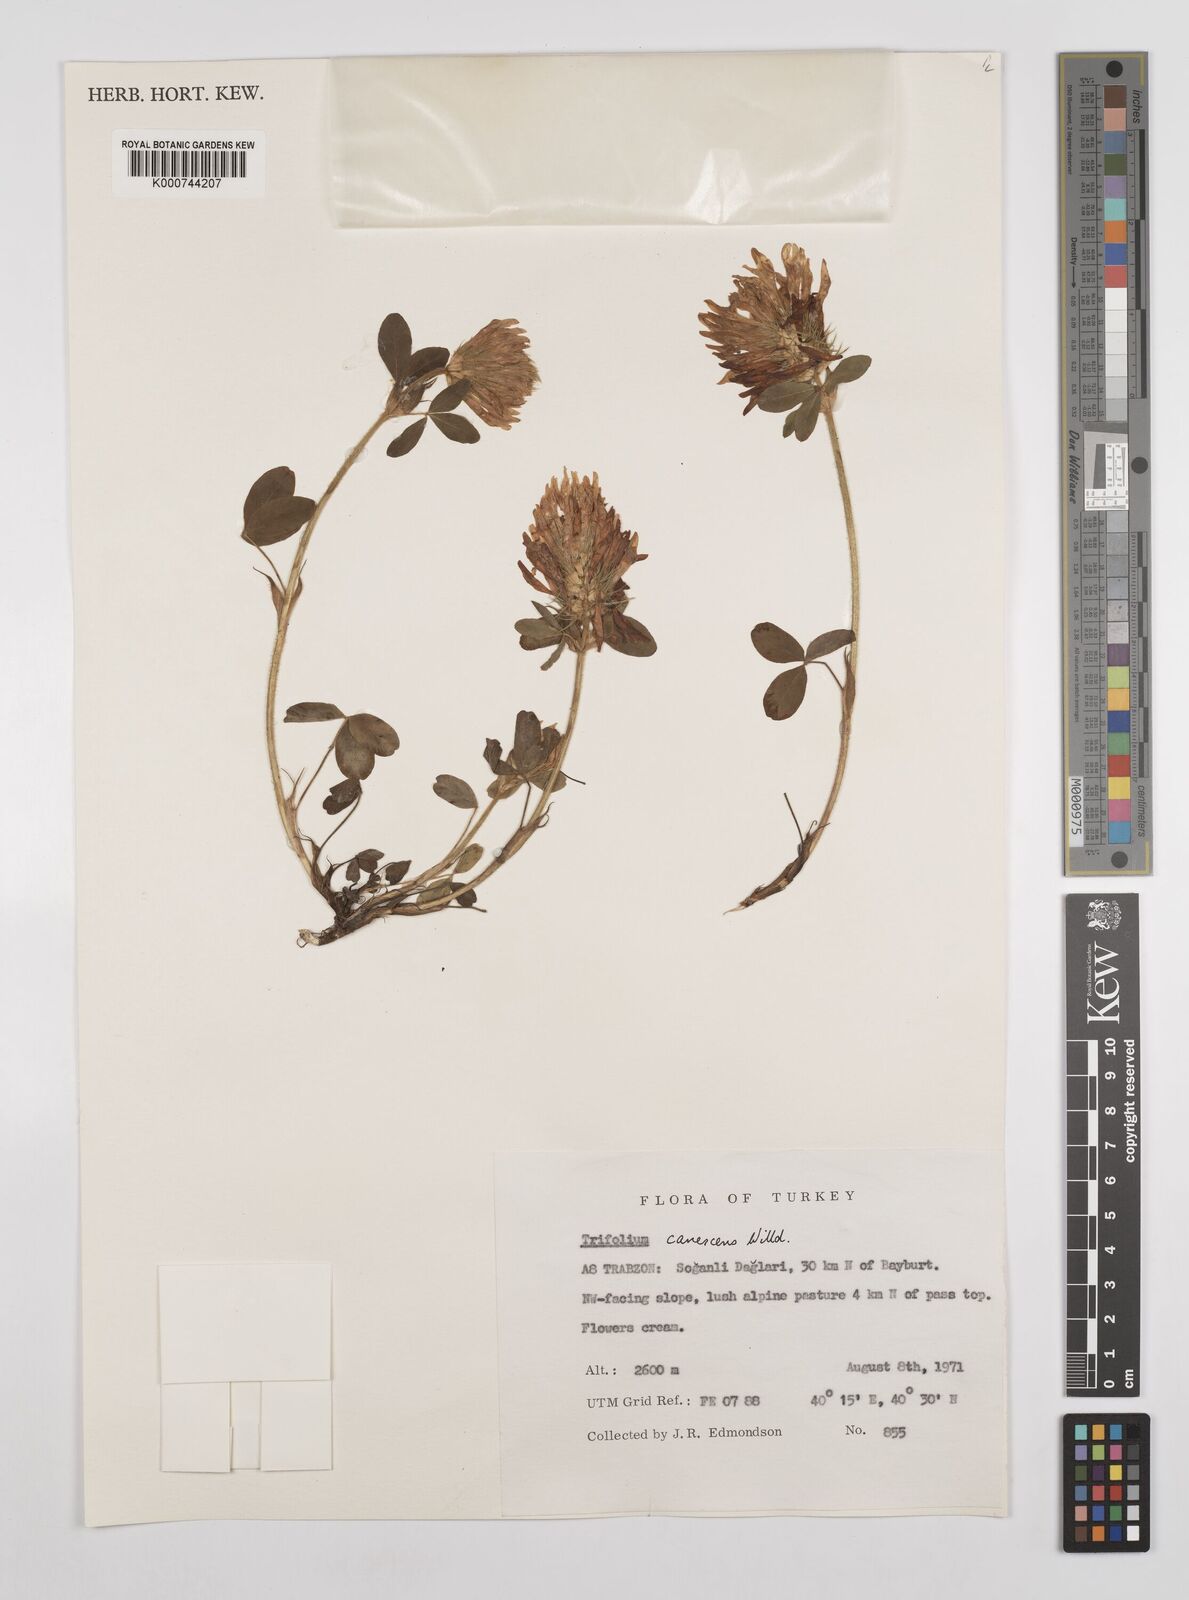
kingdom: Plantae
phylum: Tracheophyta
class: Magnoliopsida
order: Fabales
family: Fabaceae
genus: Trifolium
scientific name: Trifolium canescens
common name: Graying clover
